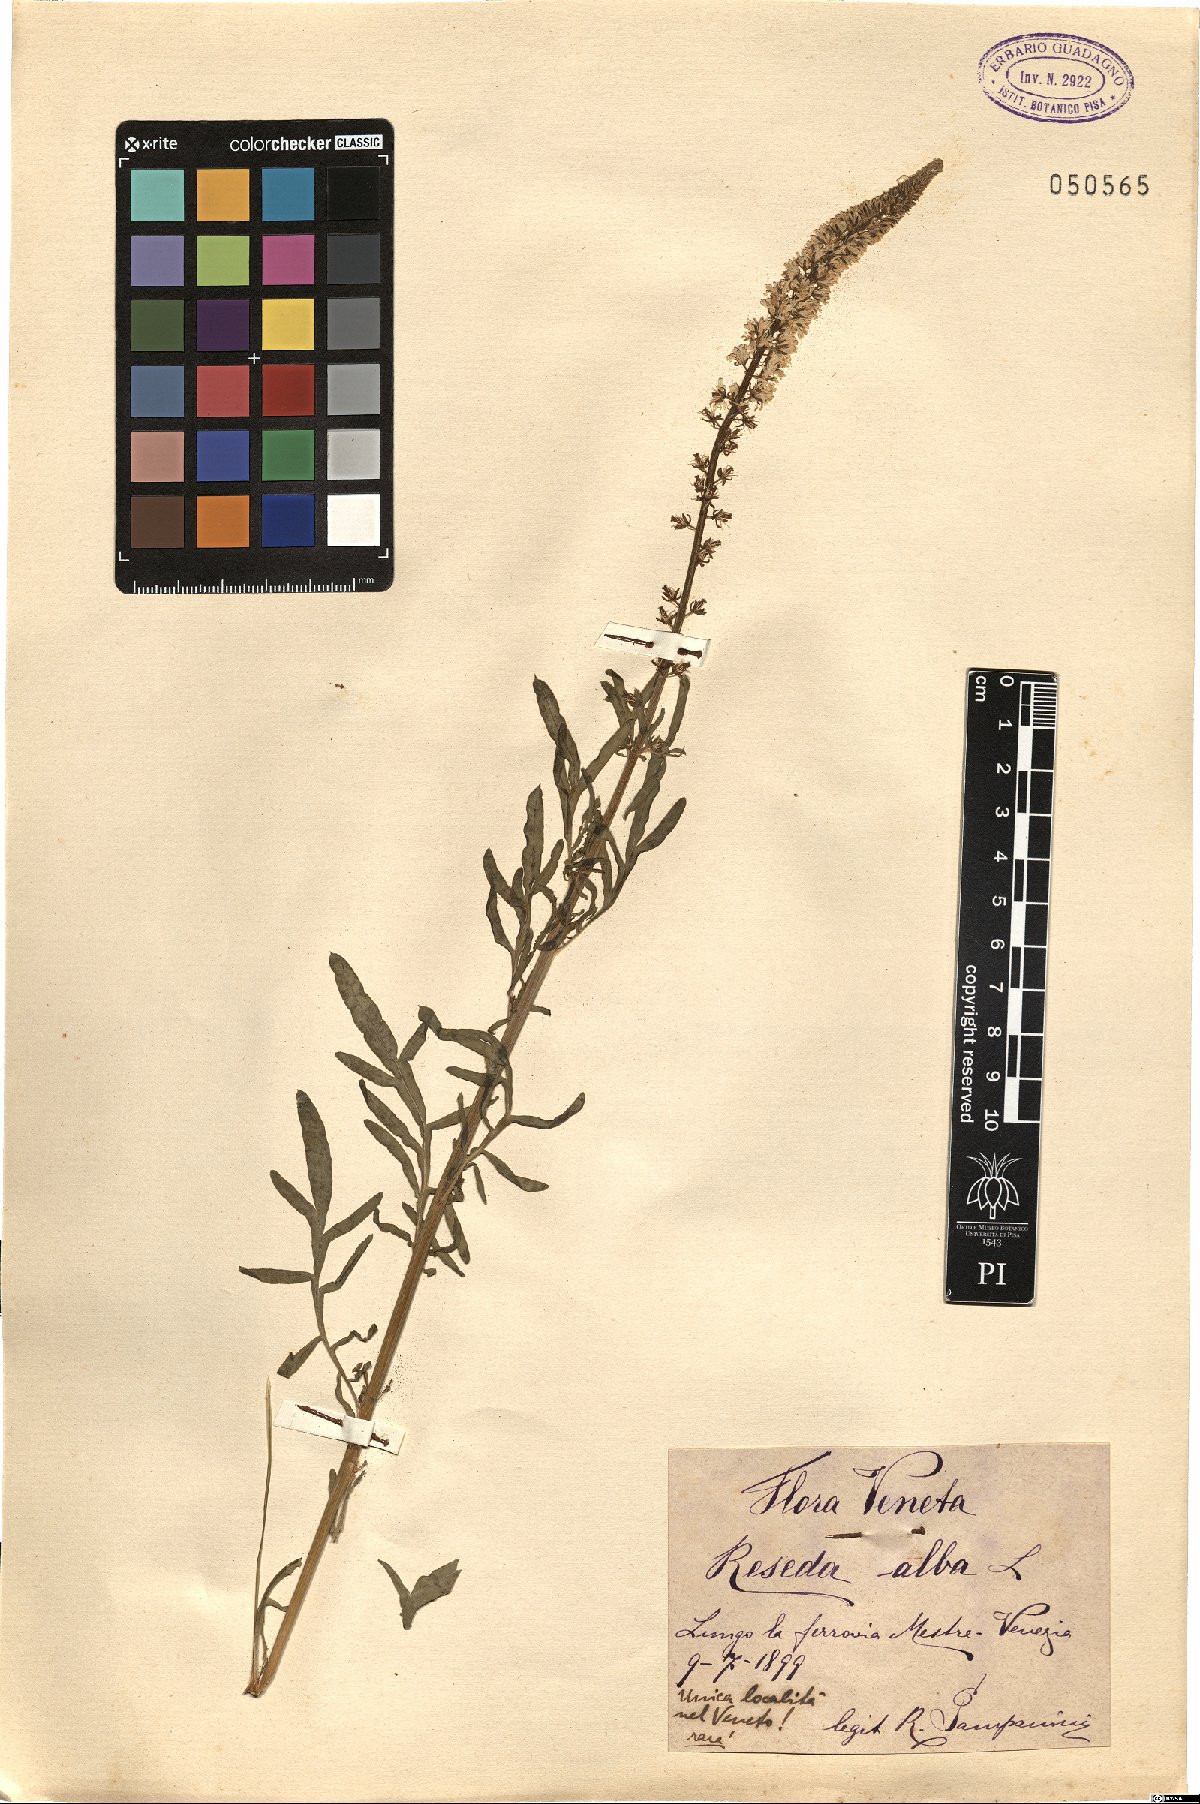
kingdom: Plantae
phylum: Tracheophyta
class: Magnoliopsida
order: Brassicales
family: Resedaceae
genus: Reseda
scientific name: Reseda alba
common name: White mignonette
